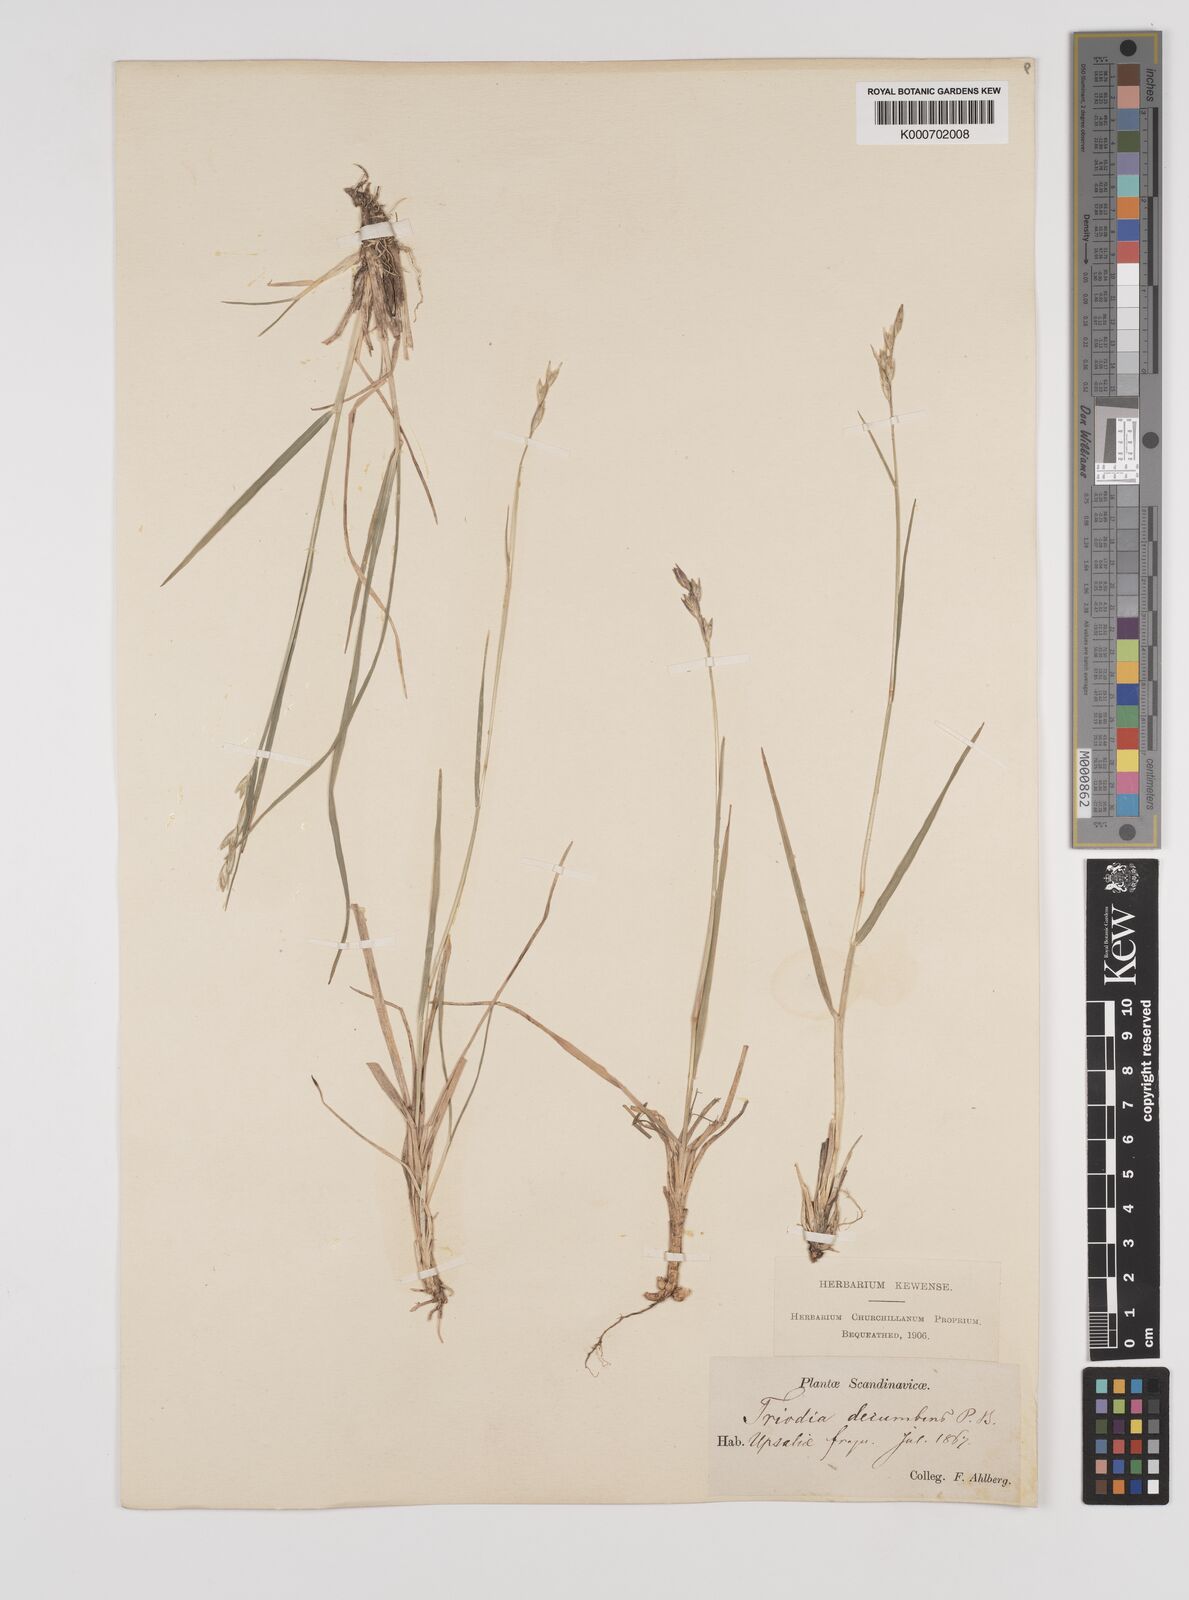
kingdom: Plantae
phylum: Tracheophyta
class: Liliopsida
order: Poales
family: Poaceae
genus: Danthonia
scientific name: Danthonia decumbens
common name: Common heathgrass
